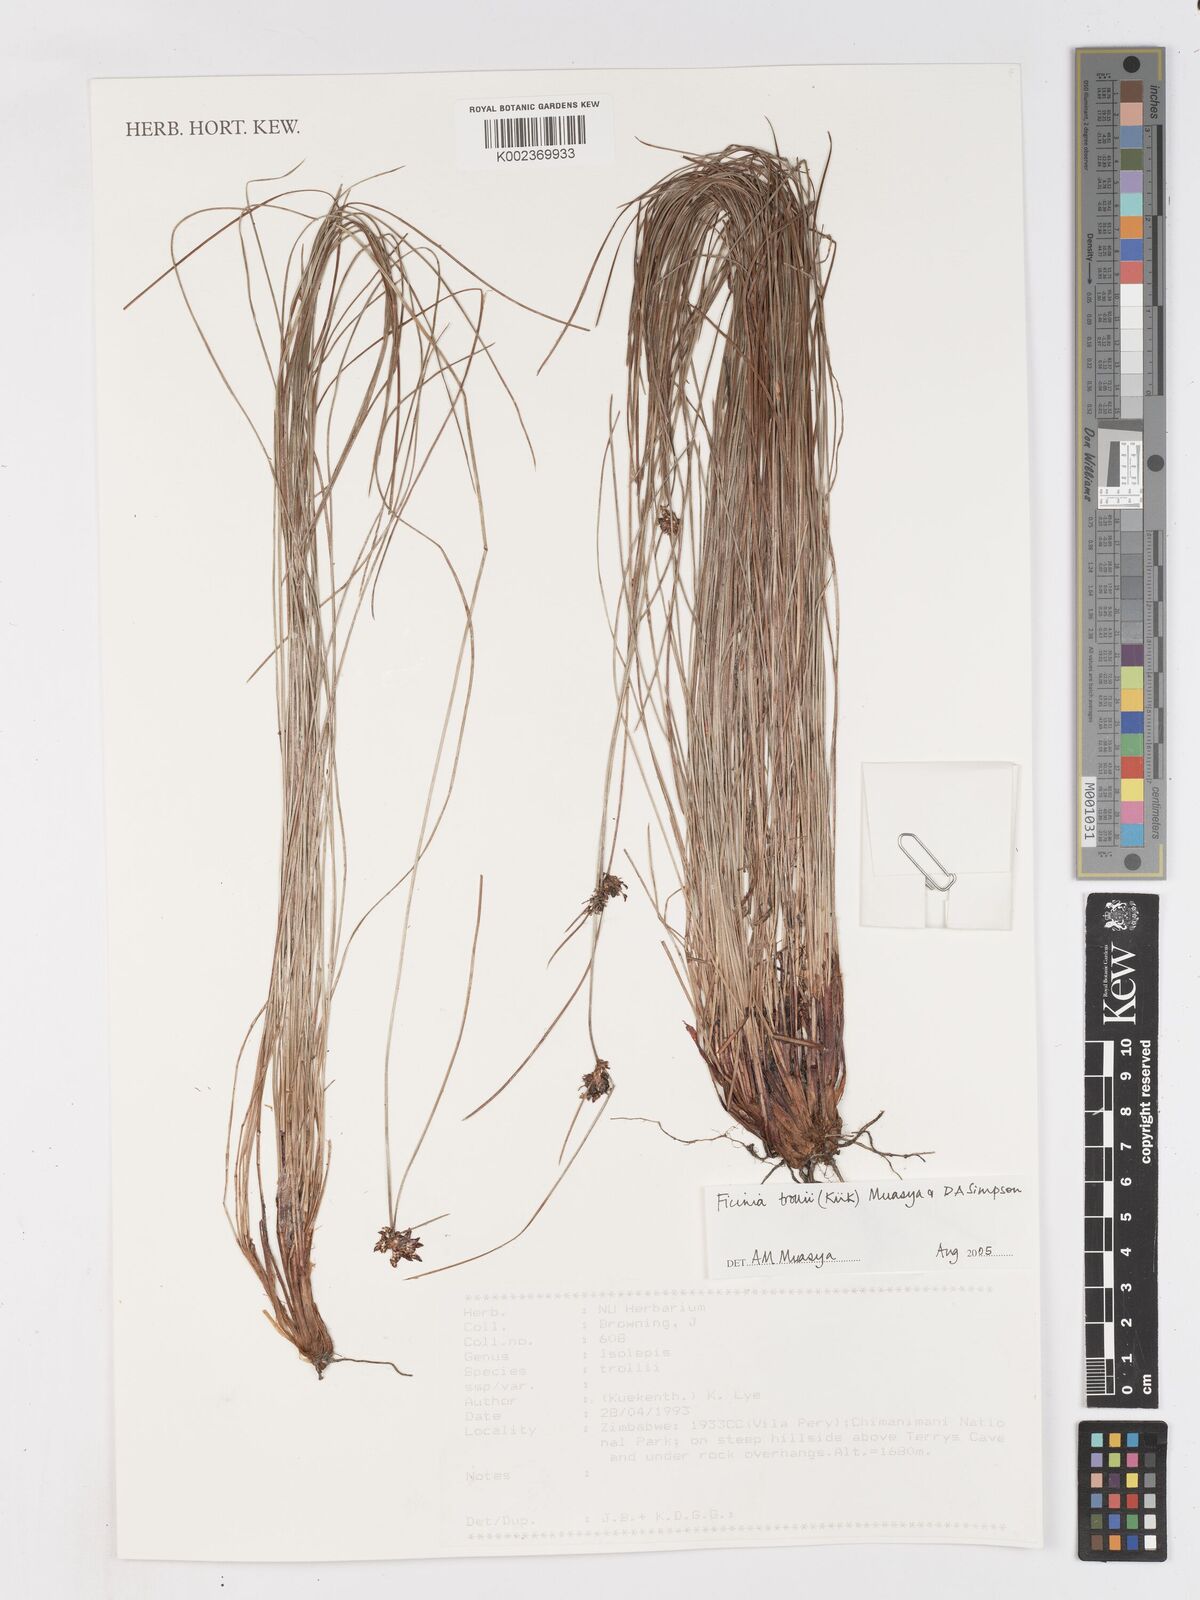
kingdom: Plantae
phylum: Tracheophyta
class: Liliopsida
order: Poales
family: Cyperaceae
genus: Ficinia
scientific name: Ficinia trollii
